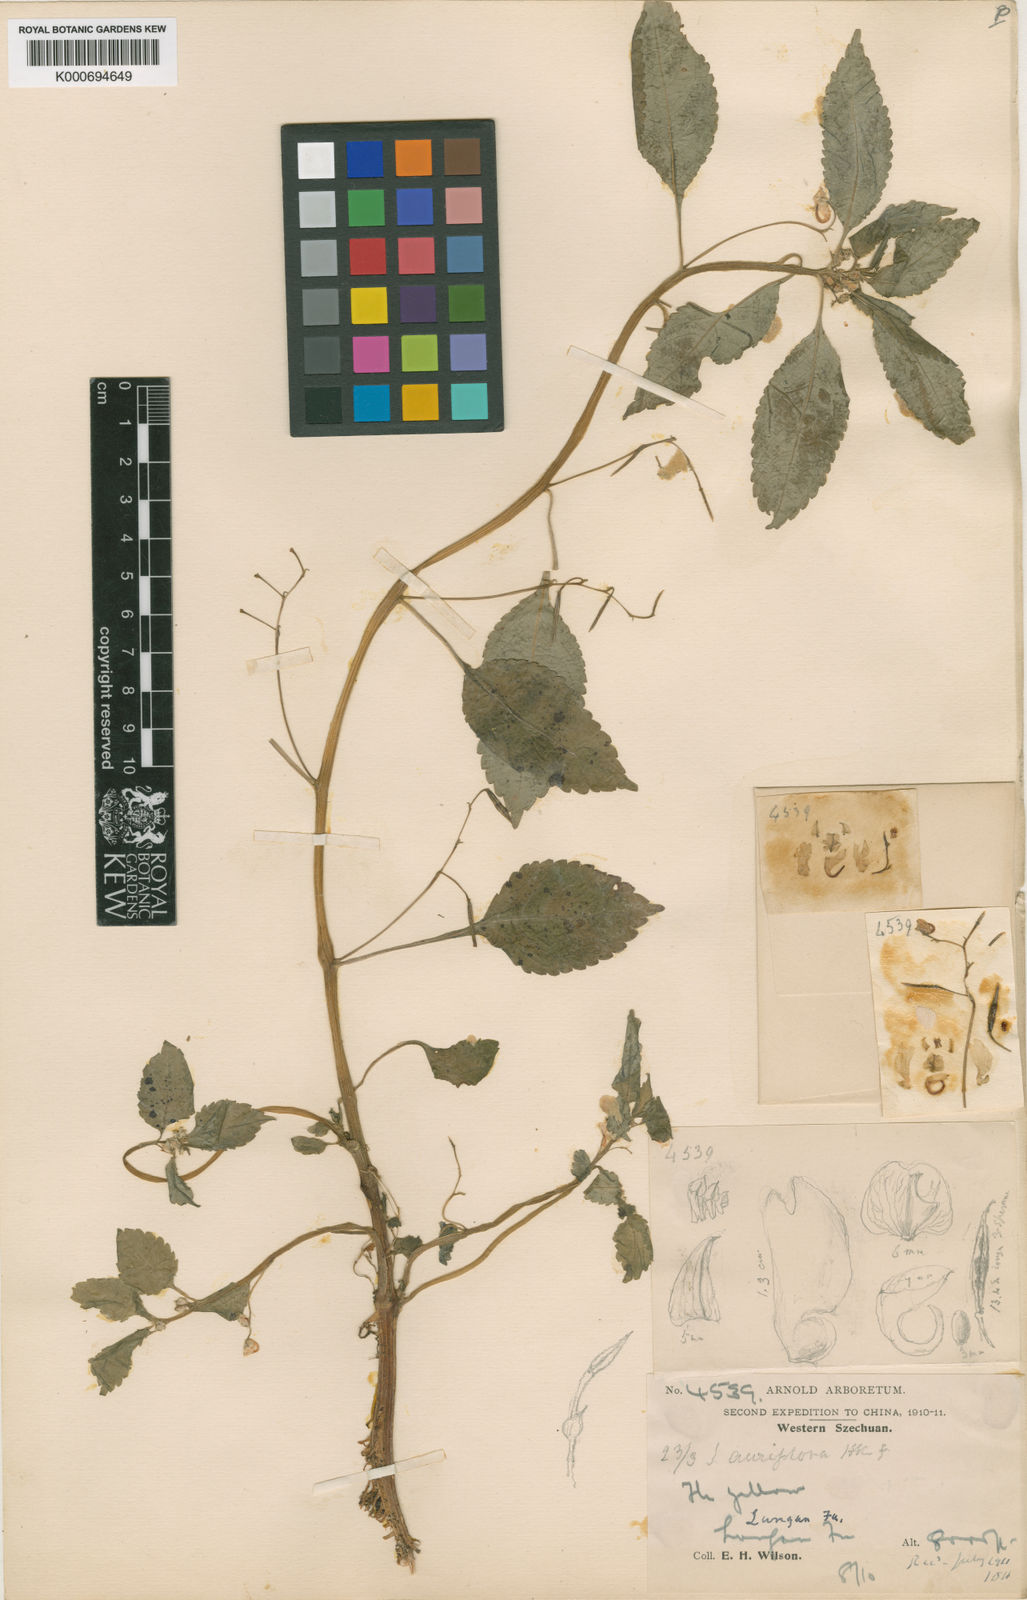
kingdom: Plantae
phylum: Tracheophyta
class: Magnoliopsida
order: Ericales
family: Balsaminaceae
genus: Impatiens
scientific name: Impatiens
